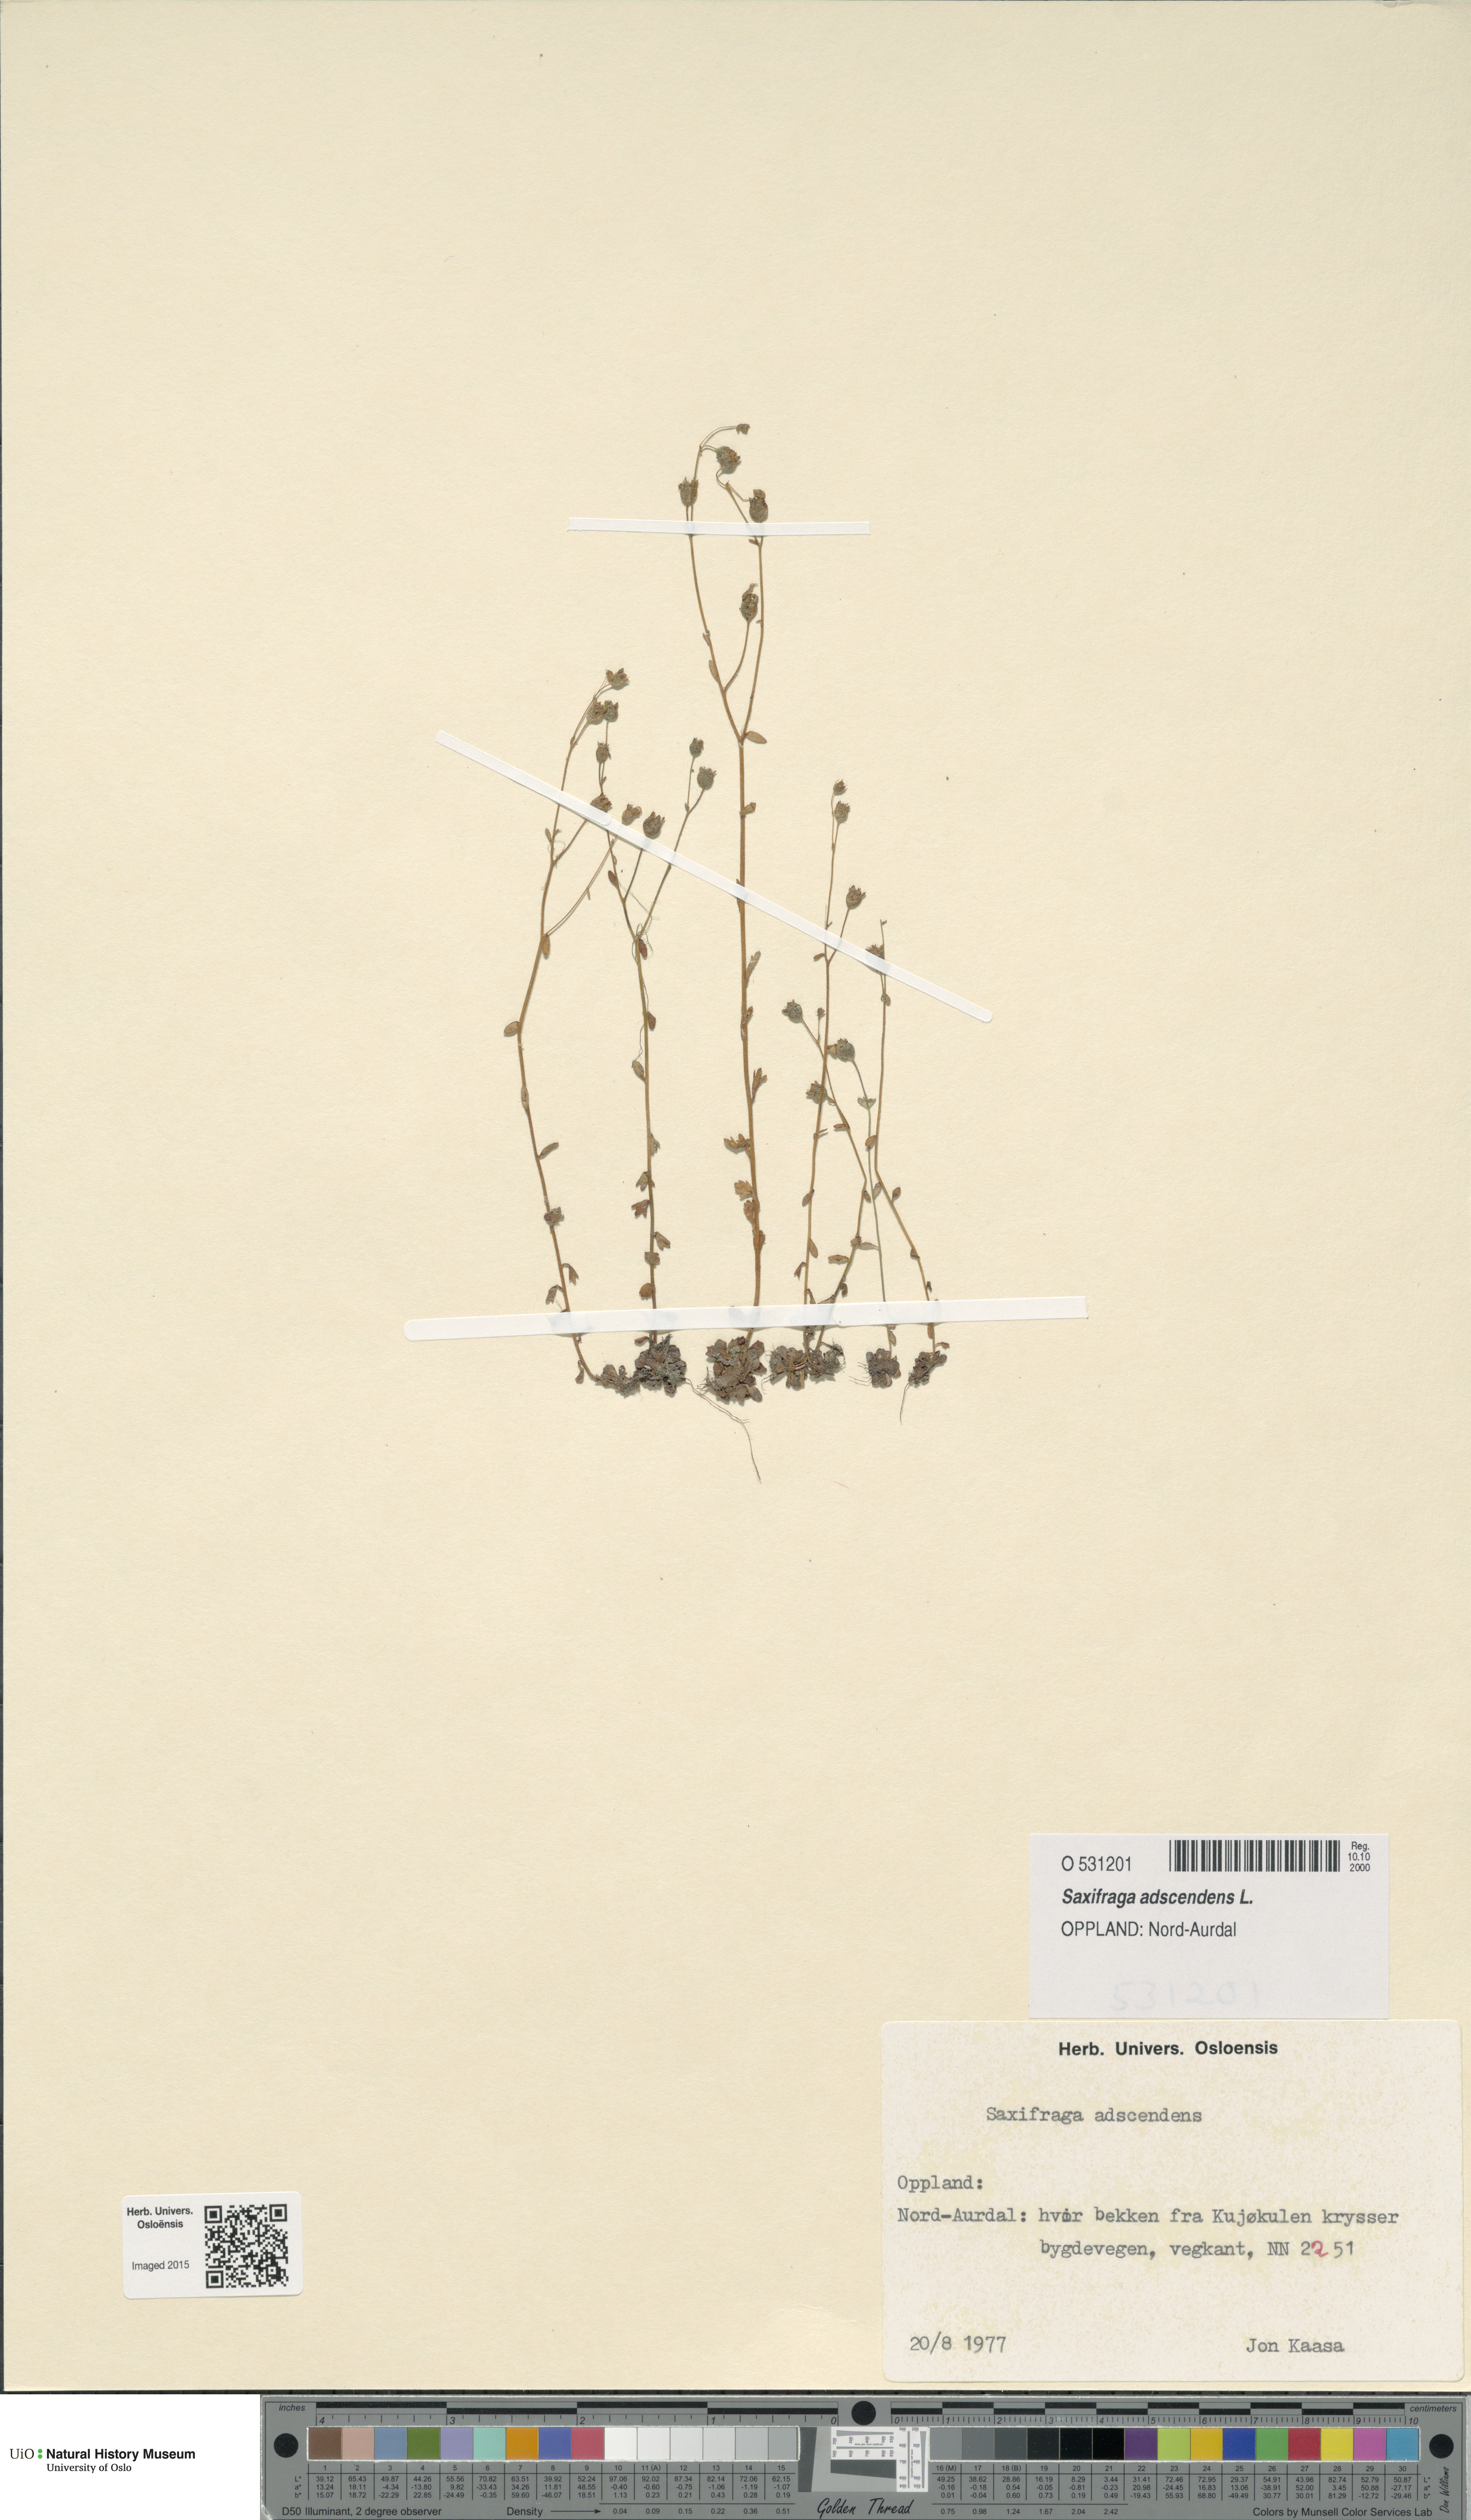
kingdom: Plantae
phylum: Tracheophyta
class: Magnoliopsida
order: Saxifragales
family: Saxifragaceae
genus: Saxifraga
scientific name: Saxifraga adscendens
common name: Ascending saxifrage
